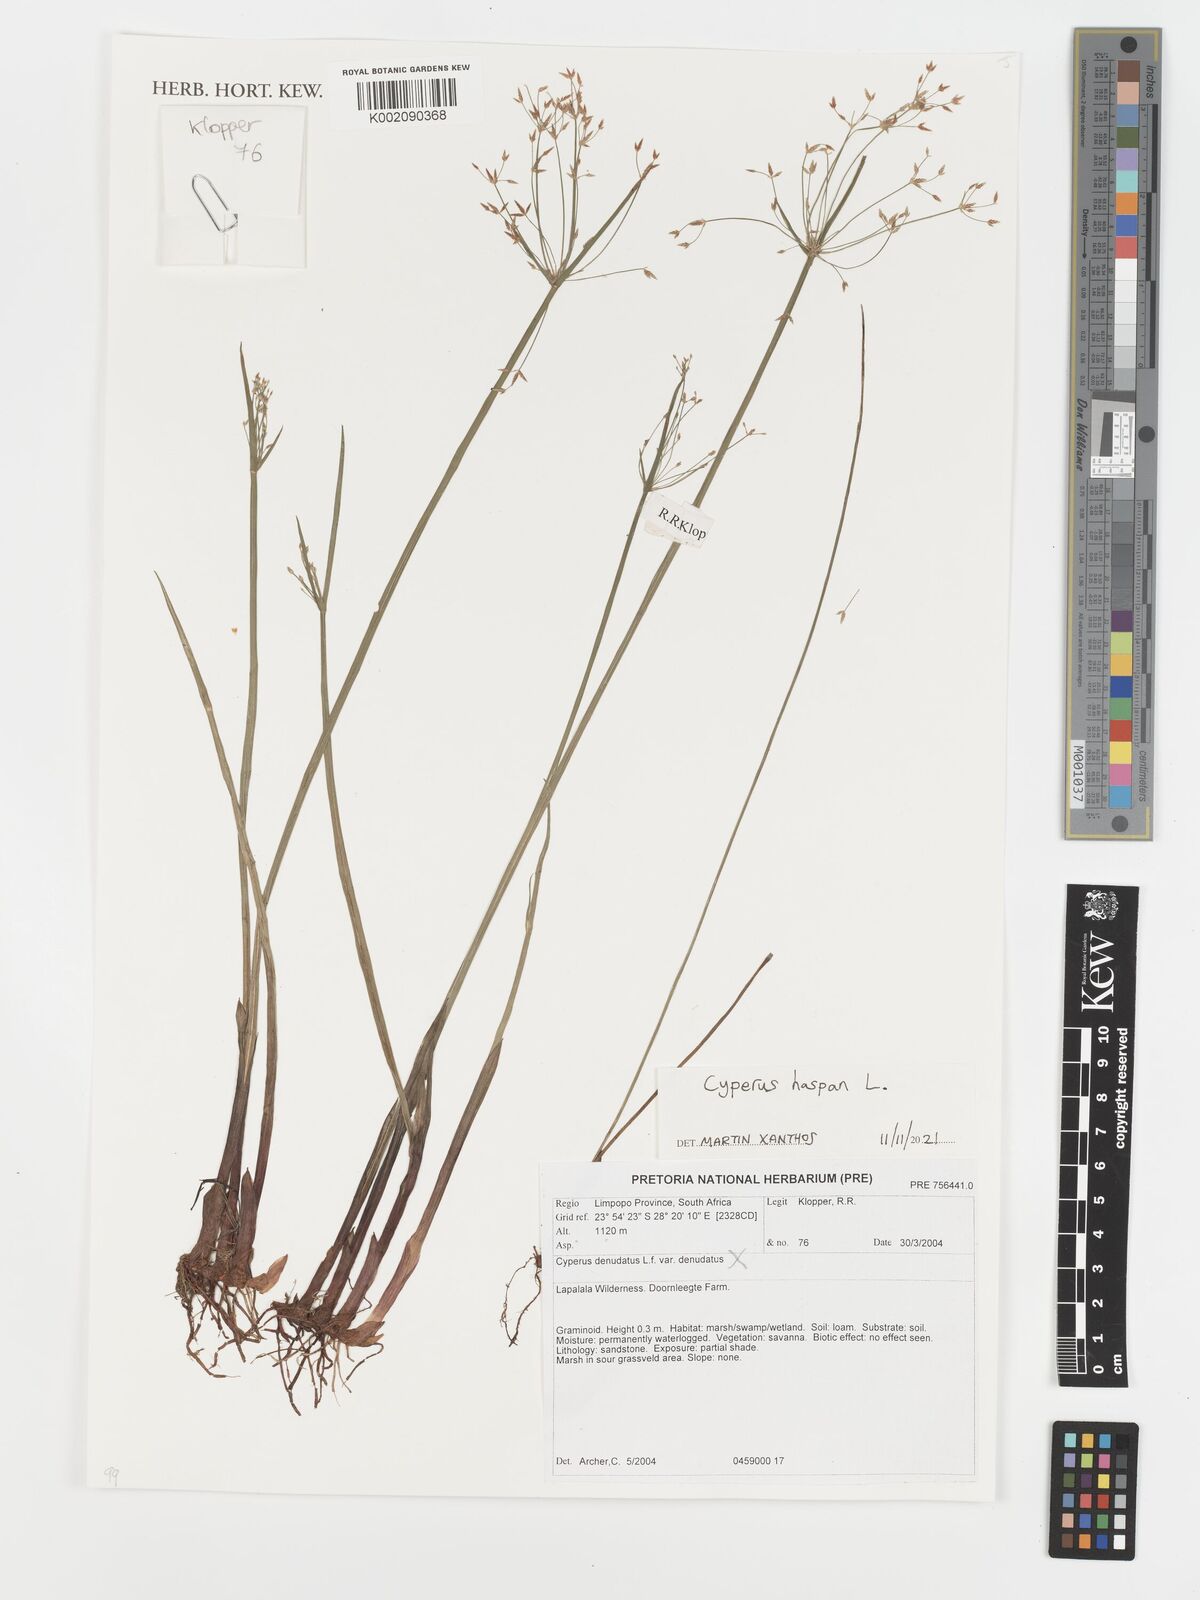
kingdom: Plantae
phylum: Tracheophyta
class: Liliopsida
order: Poales
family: Cyperaceae
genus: Cyperus
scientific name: Cyperus haspan
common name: Haspan flatsedge
